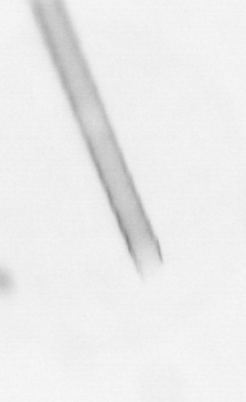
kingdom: Chromista
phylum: Ochrophyta
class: Bacillariophyceae
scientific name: Bacillariophyceae
